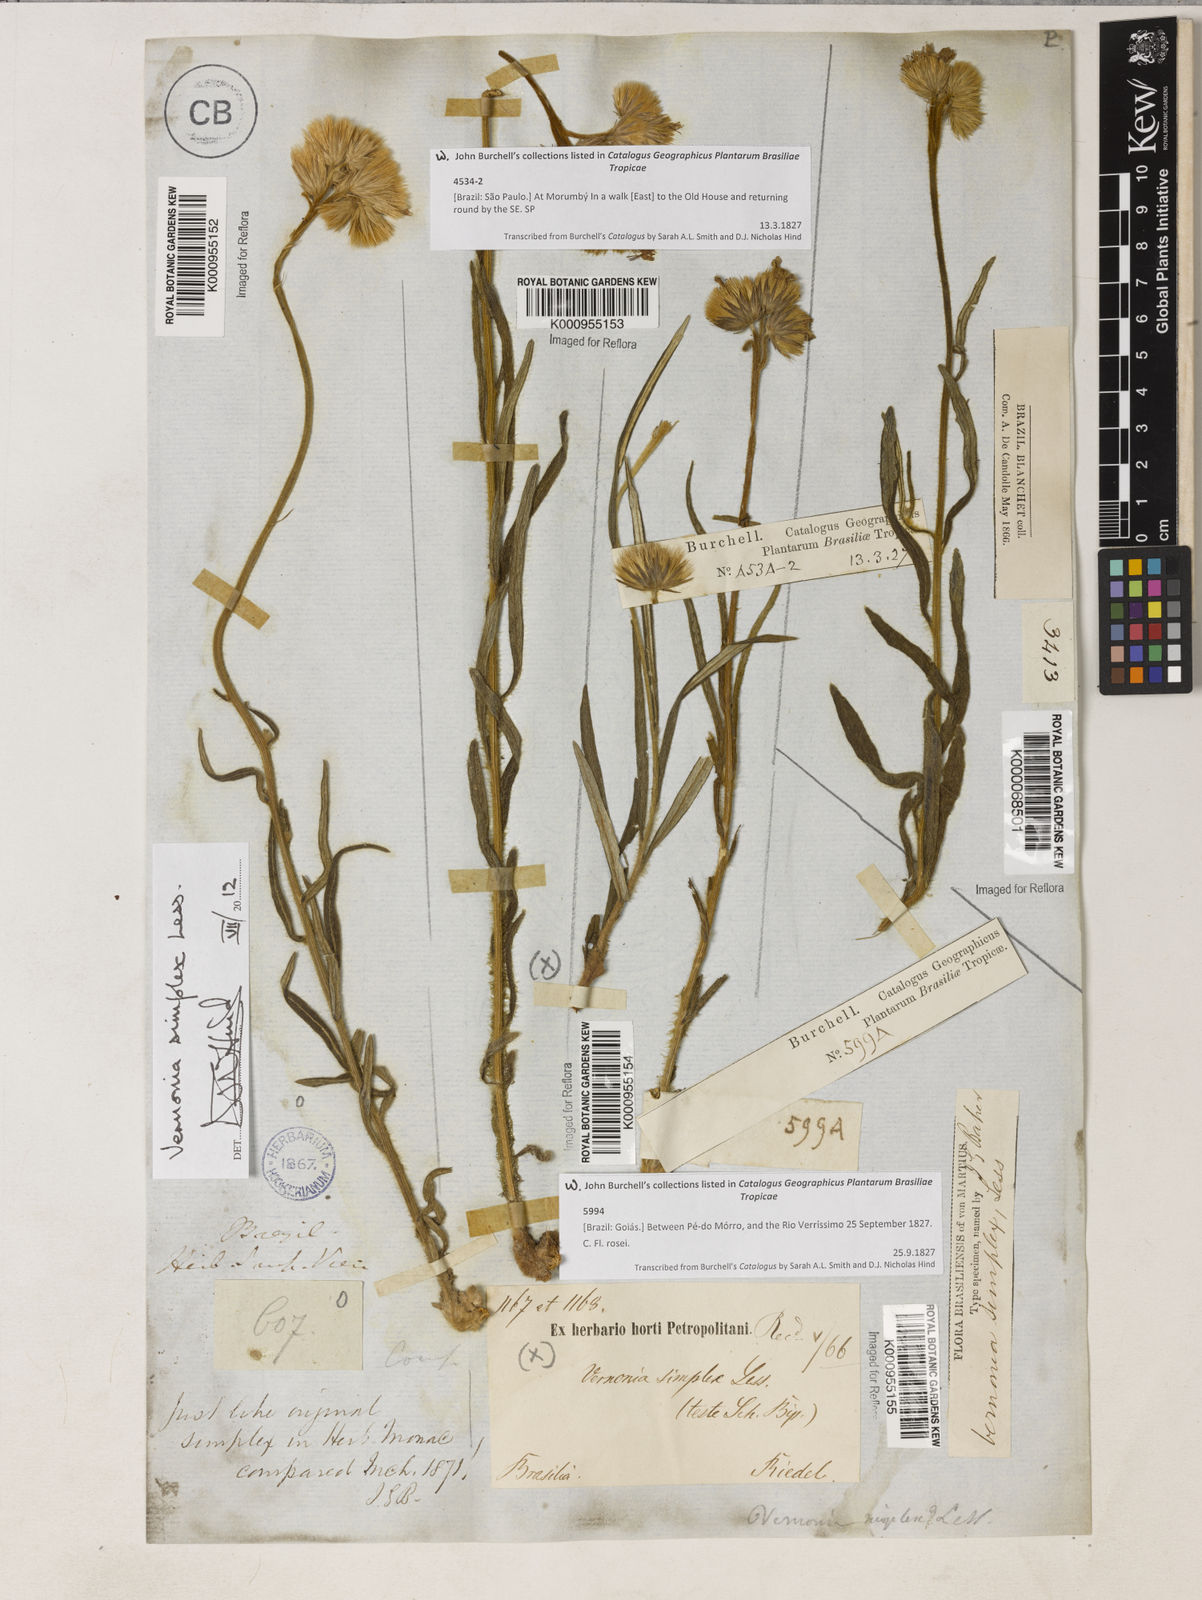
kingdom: Plantae
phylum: Tracheophyta
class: Magnoliopsida
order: Asterales
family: Asteraceae
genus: Chrysolaena
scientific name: Chrysolaena simplex
